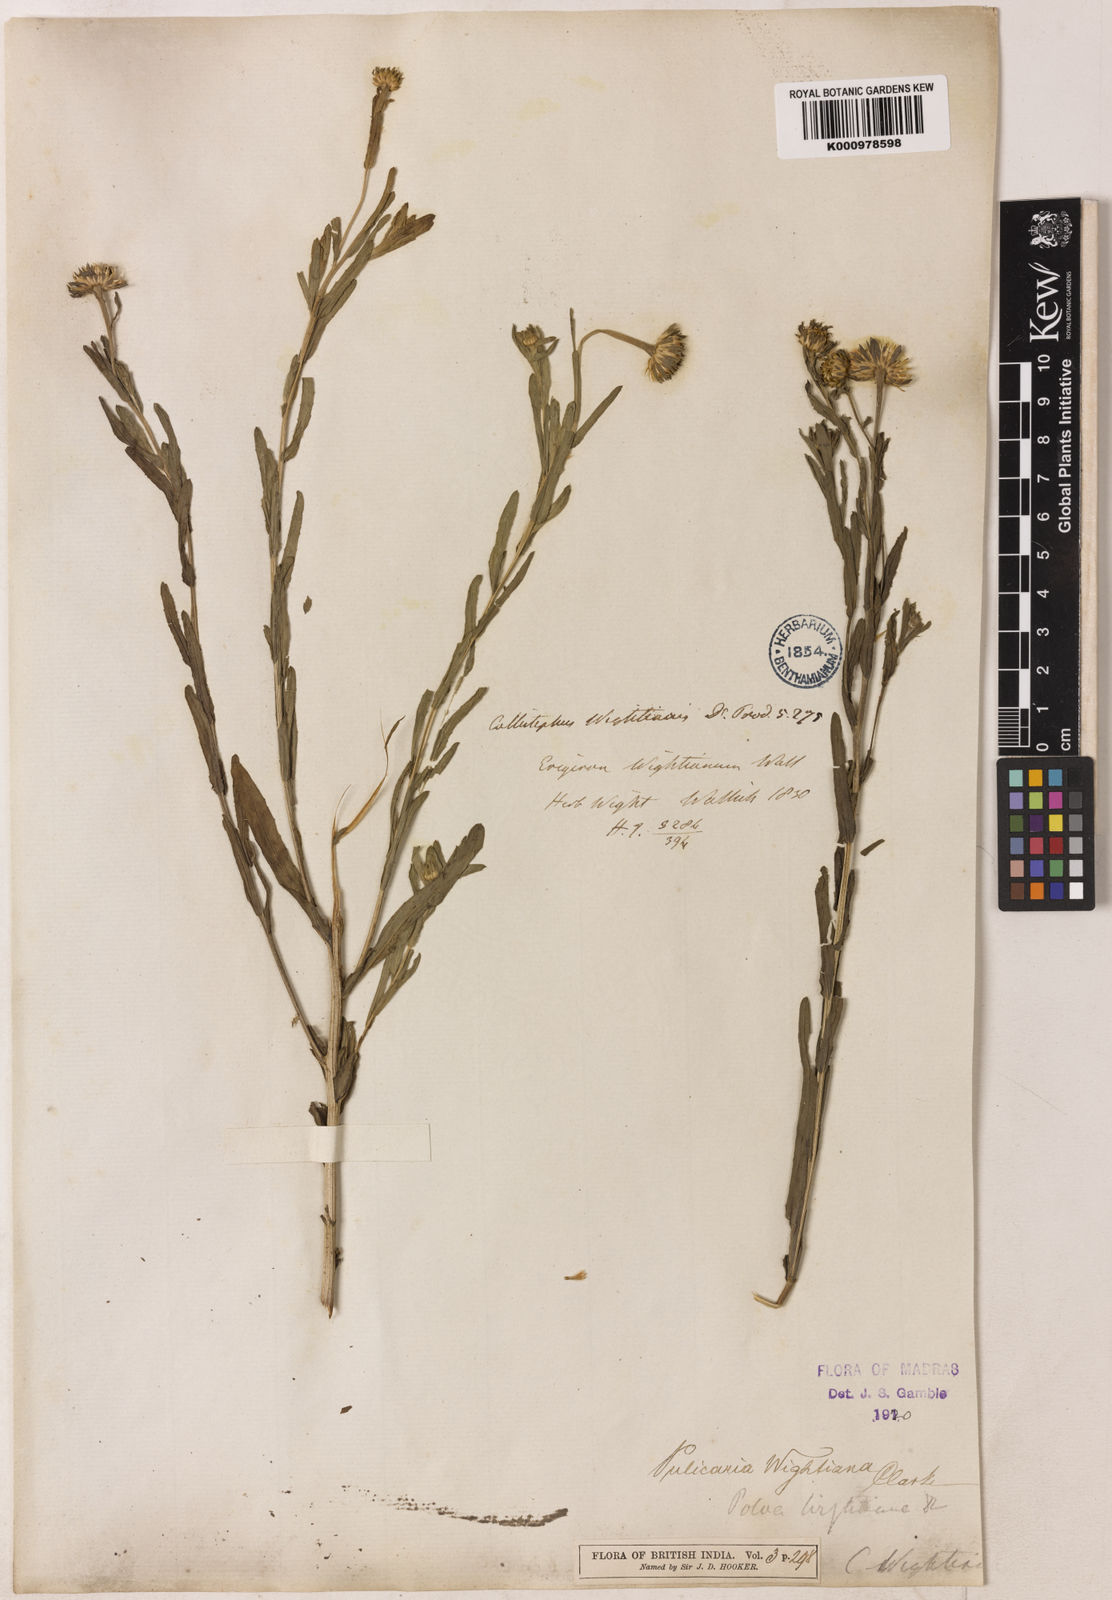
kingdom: Plantae
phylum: Tracheophyta
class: Magnoliopsida
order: Asterales
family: Asteraceae
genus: Pulicaria
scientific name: Pulicaria wightiana
